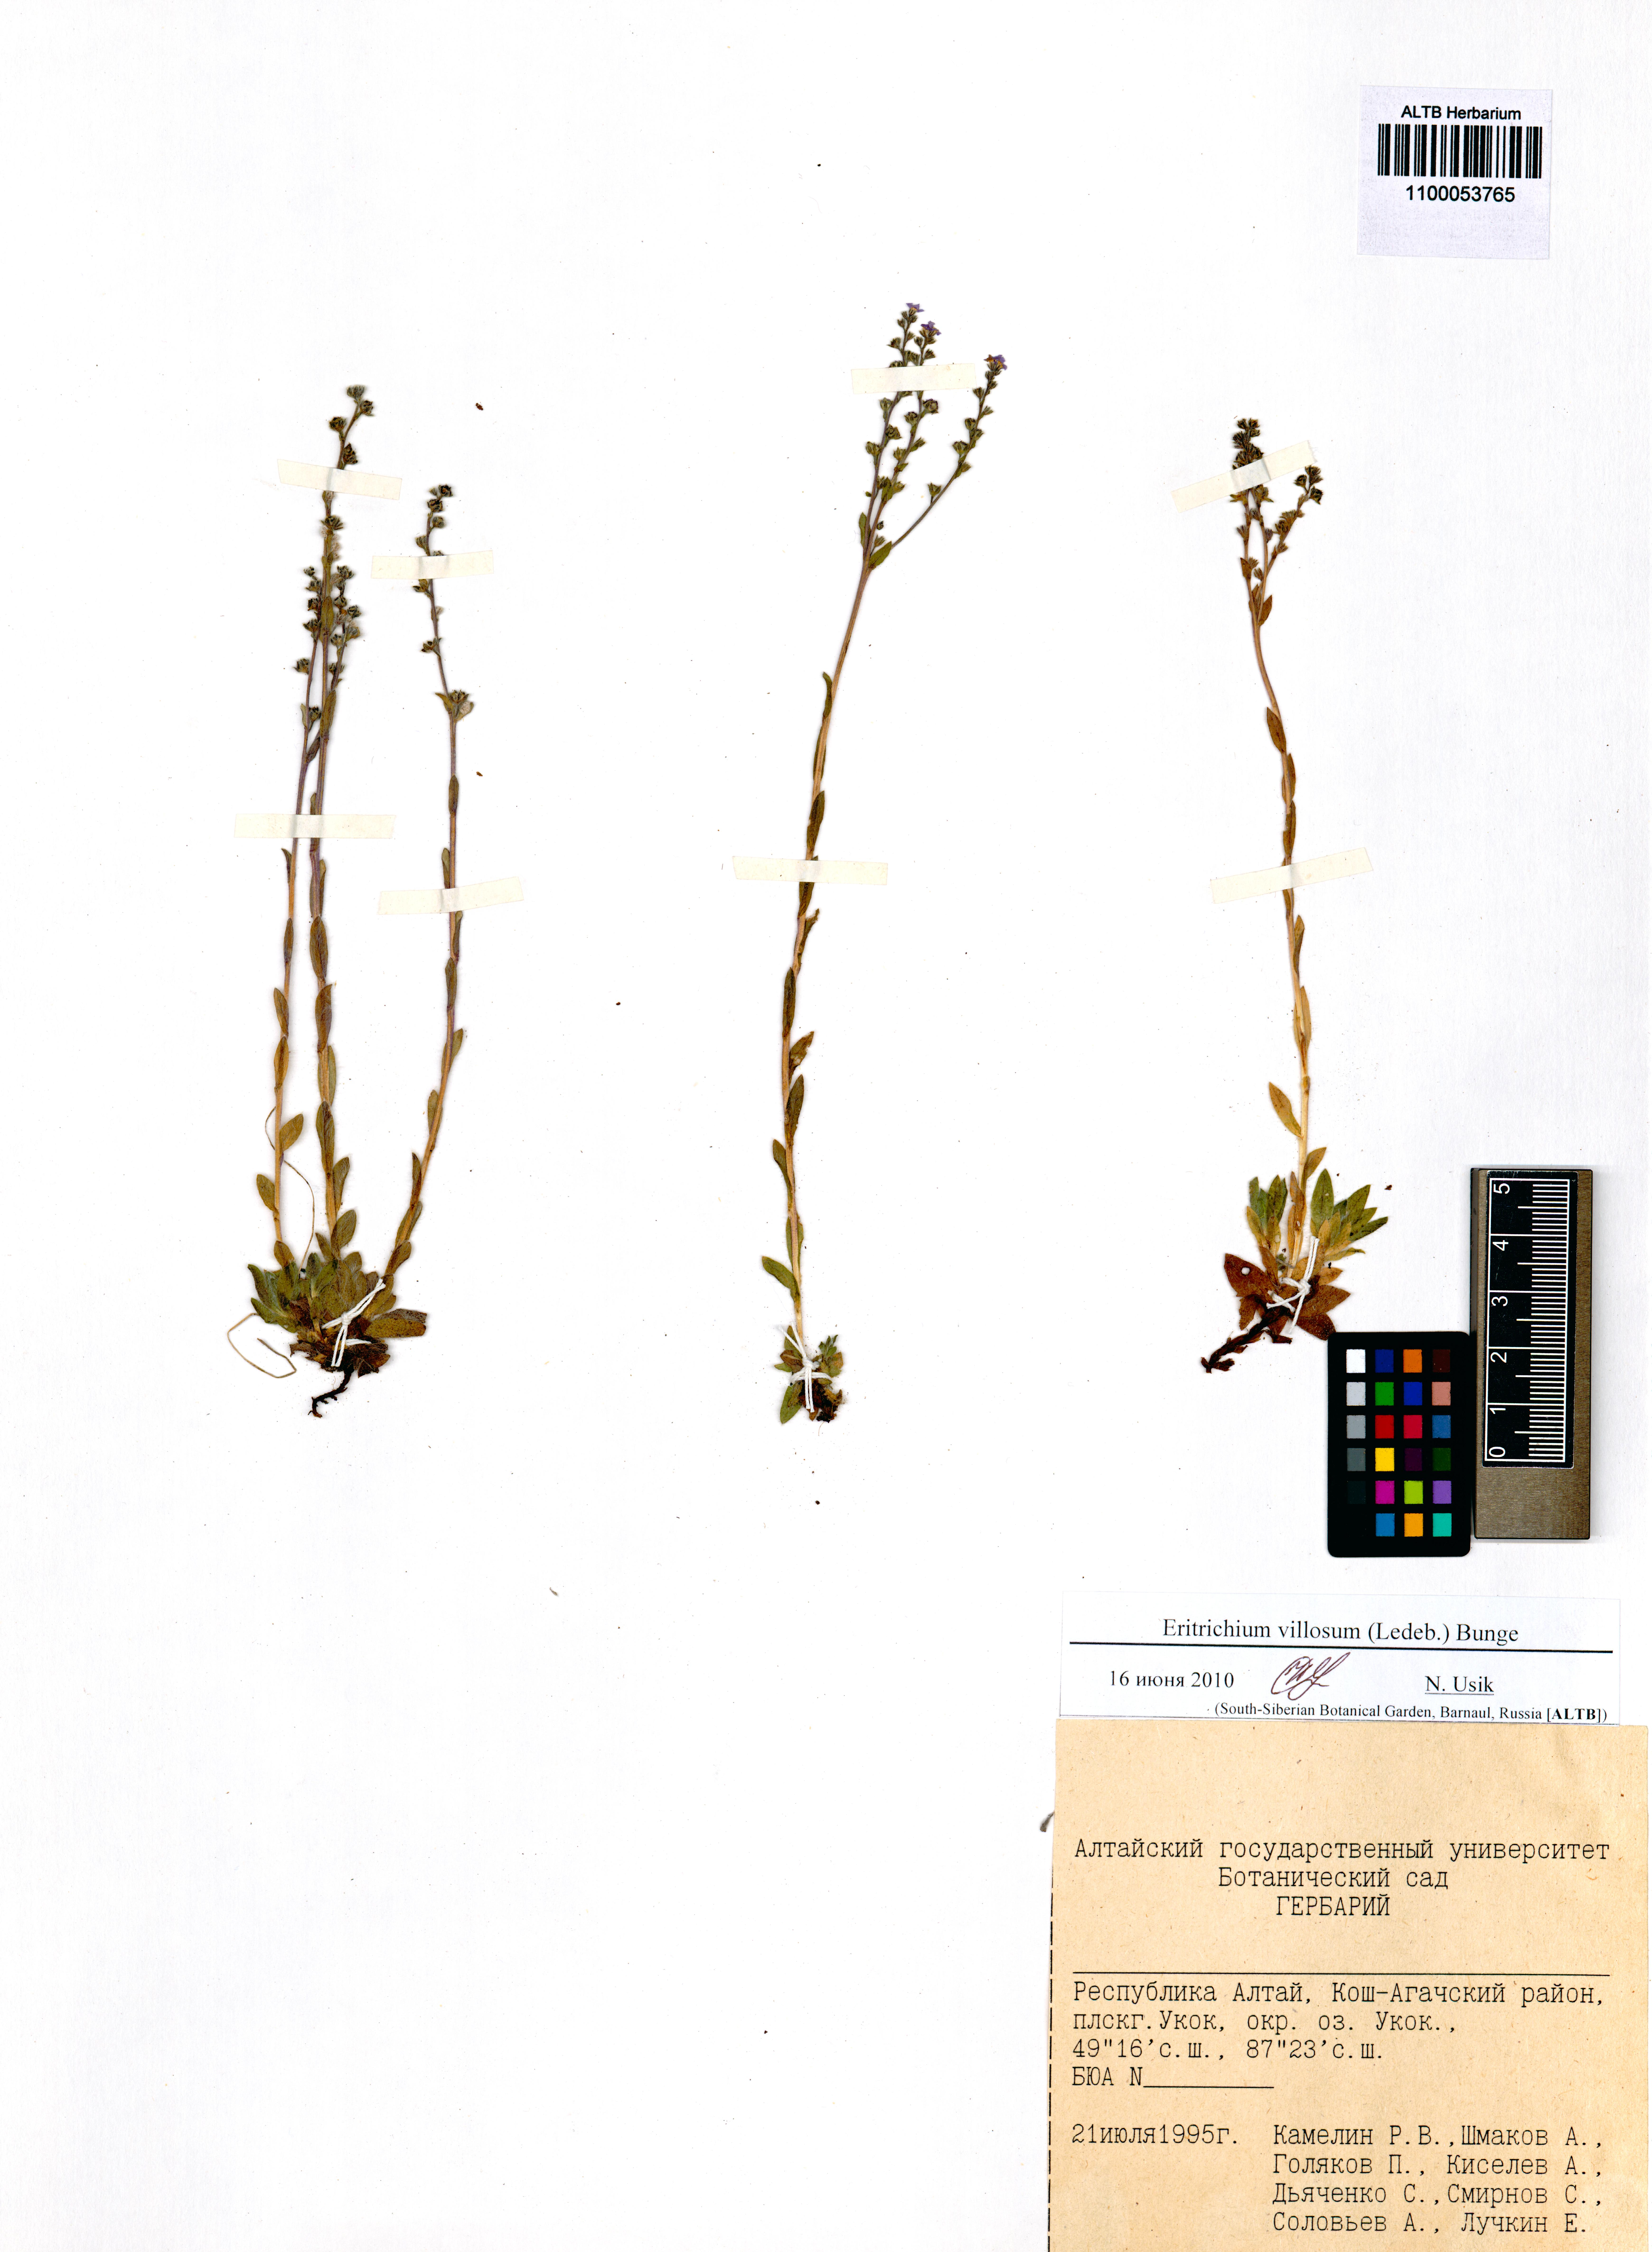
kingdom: Plantae
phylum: Tracheophyta
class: Magnoliopsida
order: Boraginales
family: Boraginaceae
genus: Eritrichium
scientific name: Eritrichium villosum
